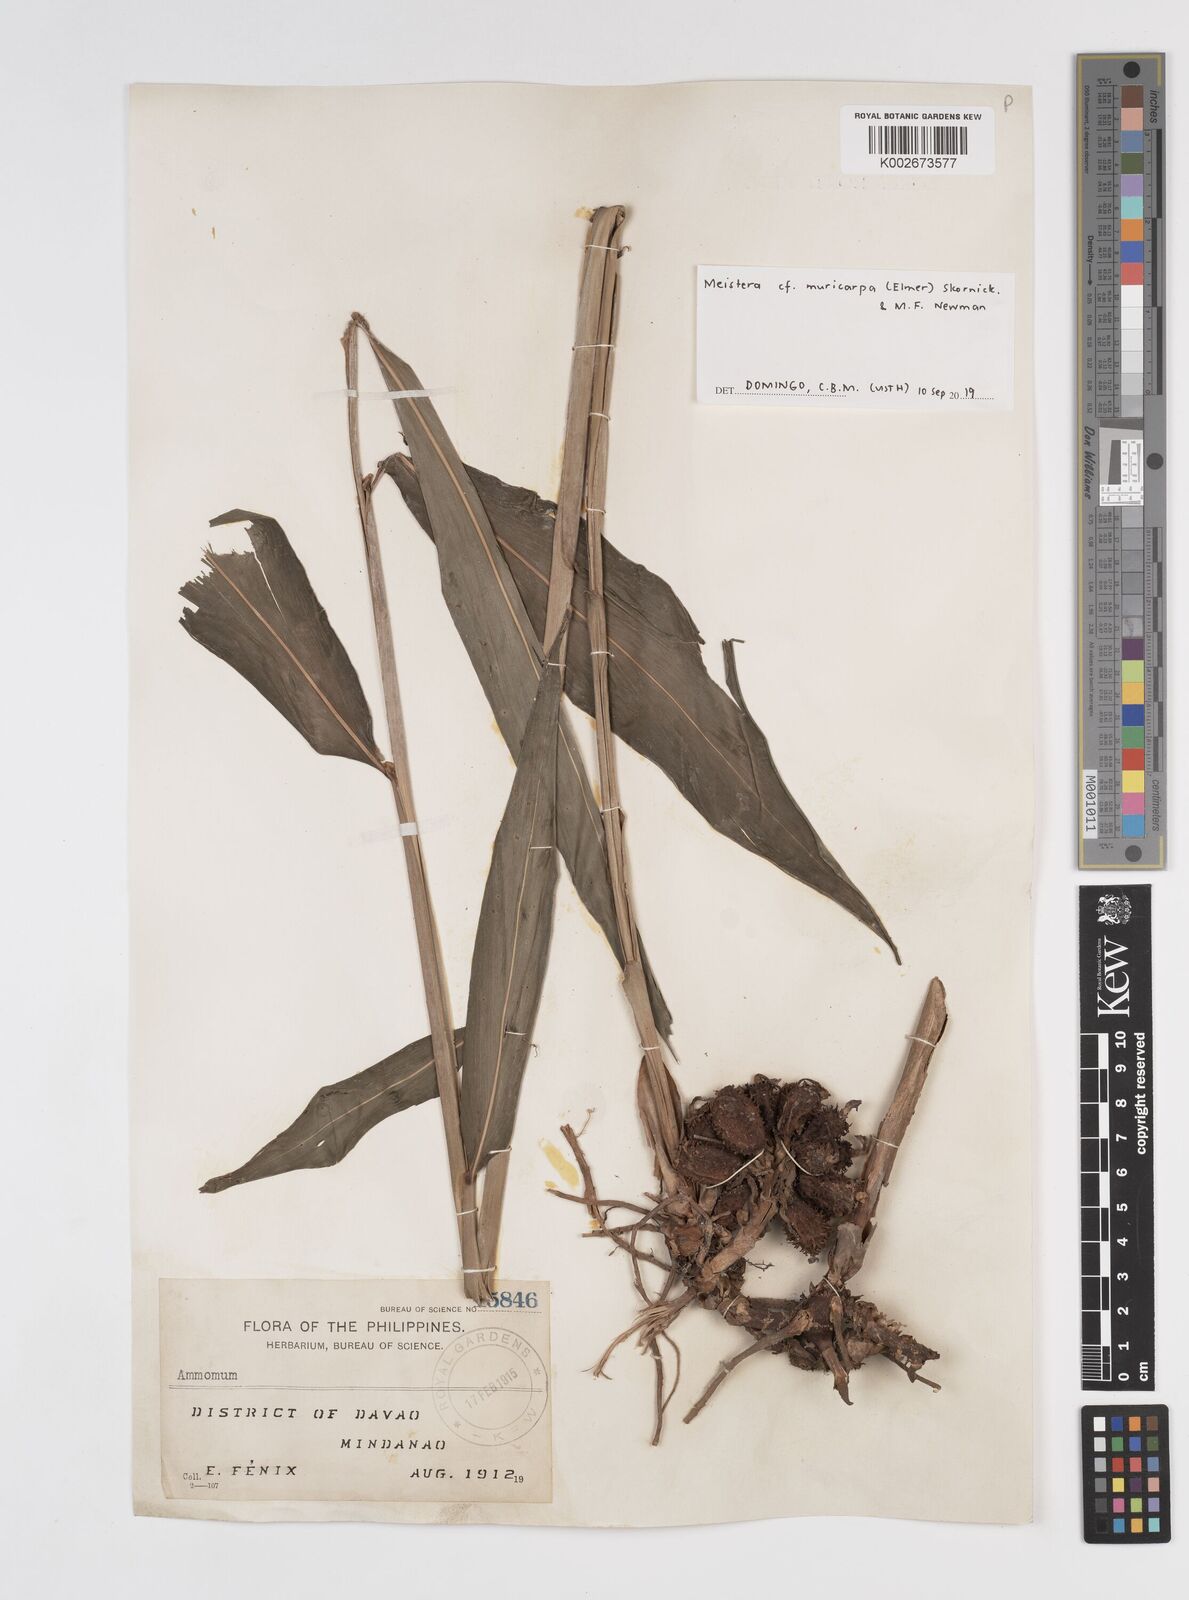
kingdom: Plantae
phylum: Tracheophyta
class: Liliopsida
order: Zingiberales
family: Zingiberaceae
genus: Meistera
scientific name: Meistera muricarpa
